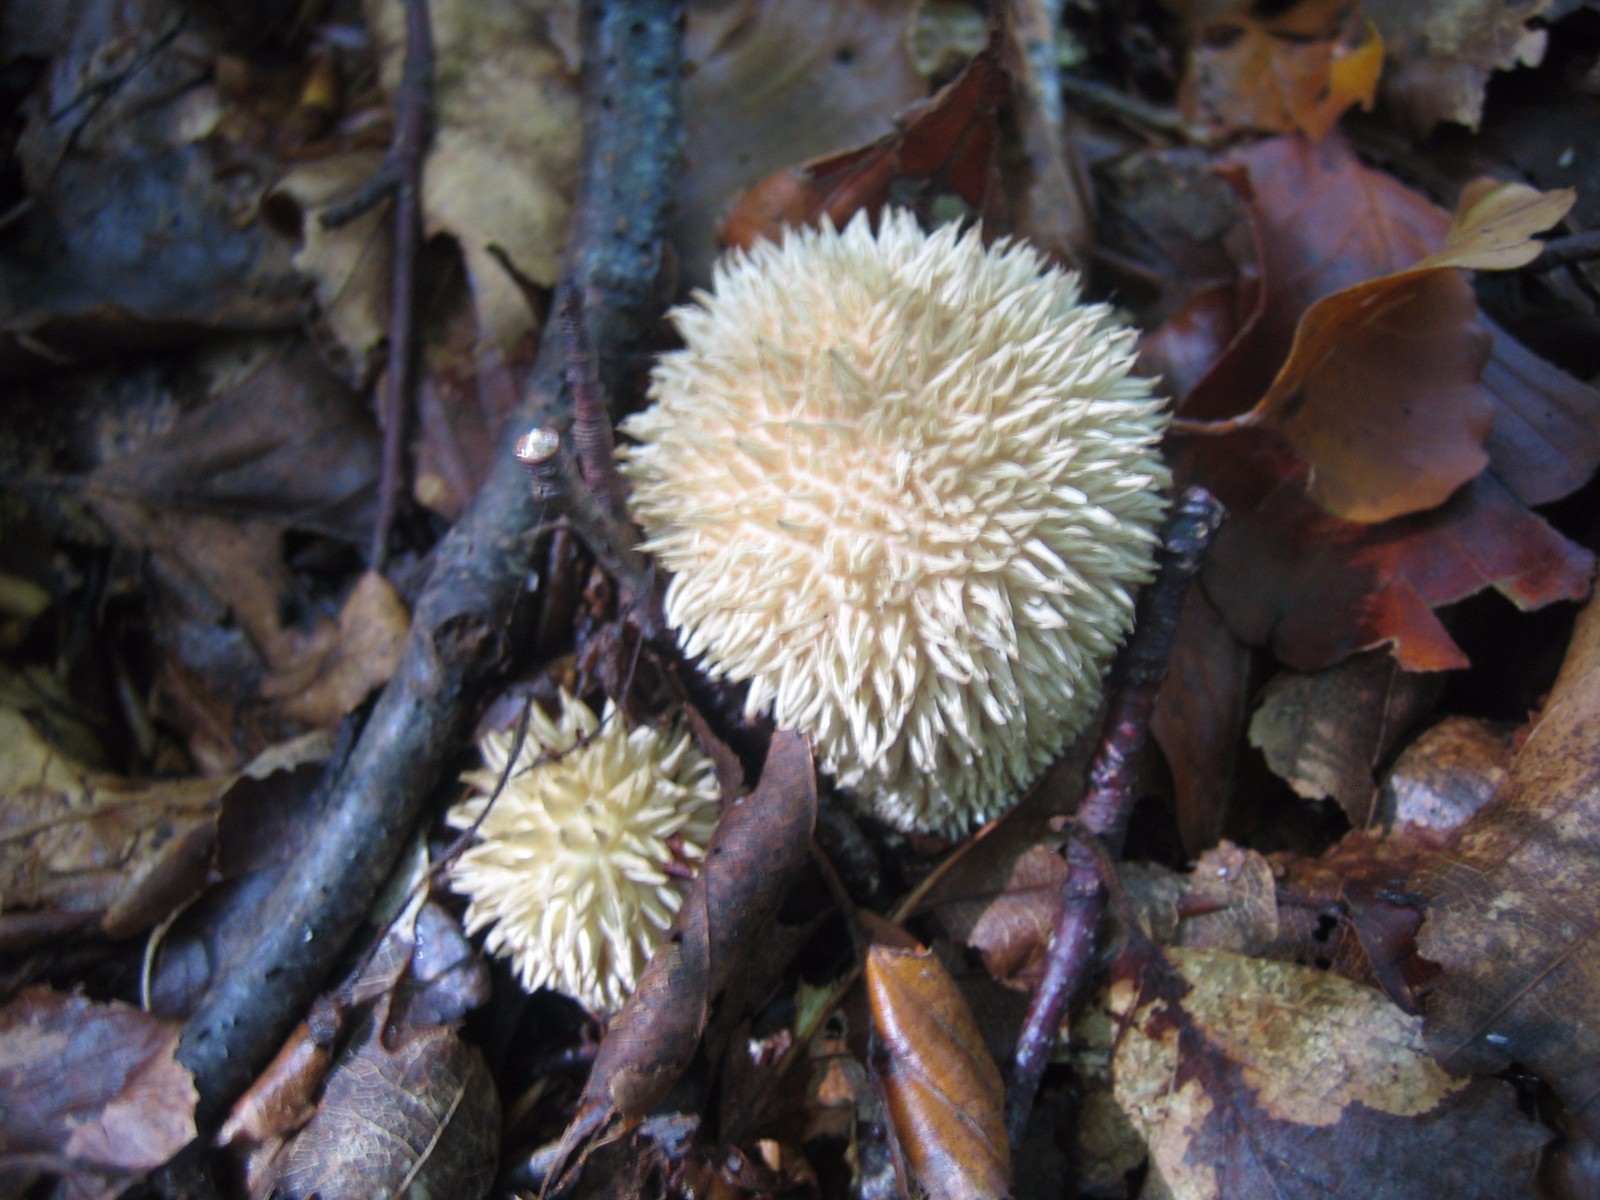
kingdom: Fungi
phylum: Basidiomycota
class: Agaricomycetes
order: Agaricales
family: Lycoperdaceae
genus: Lycoperdon
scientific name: Lycoperdon echinatum
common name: pindsvine-støvbold
